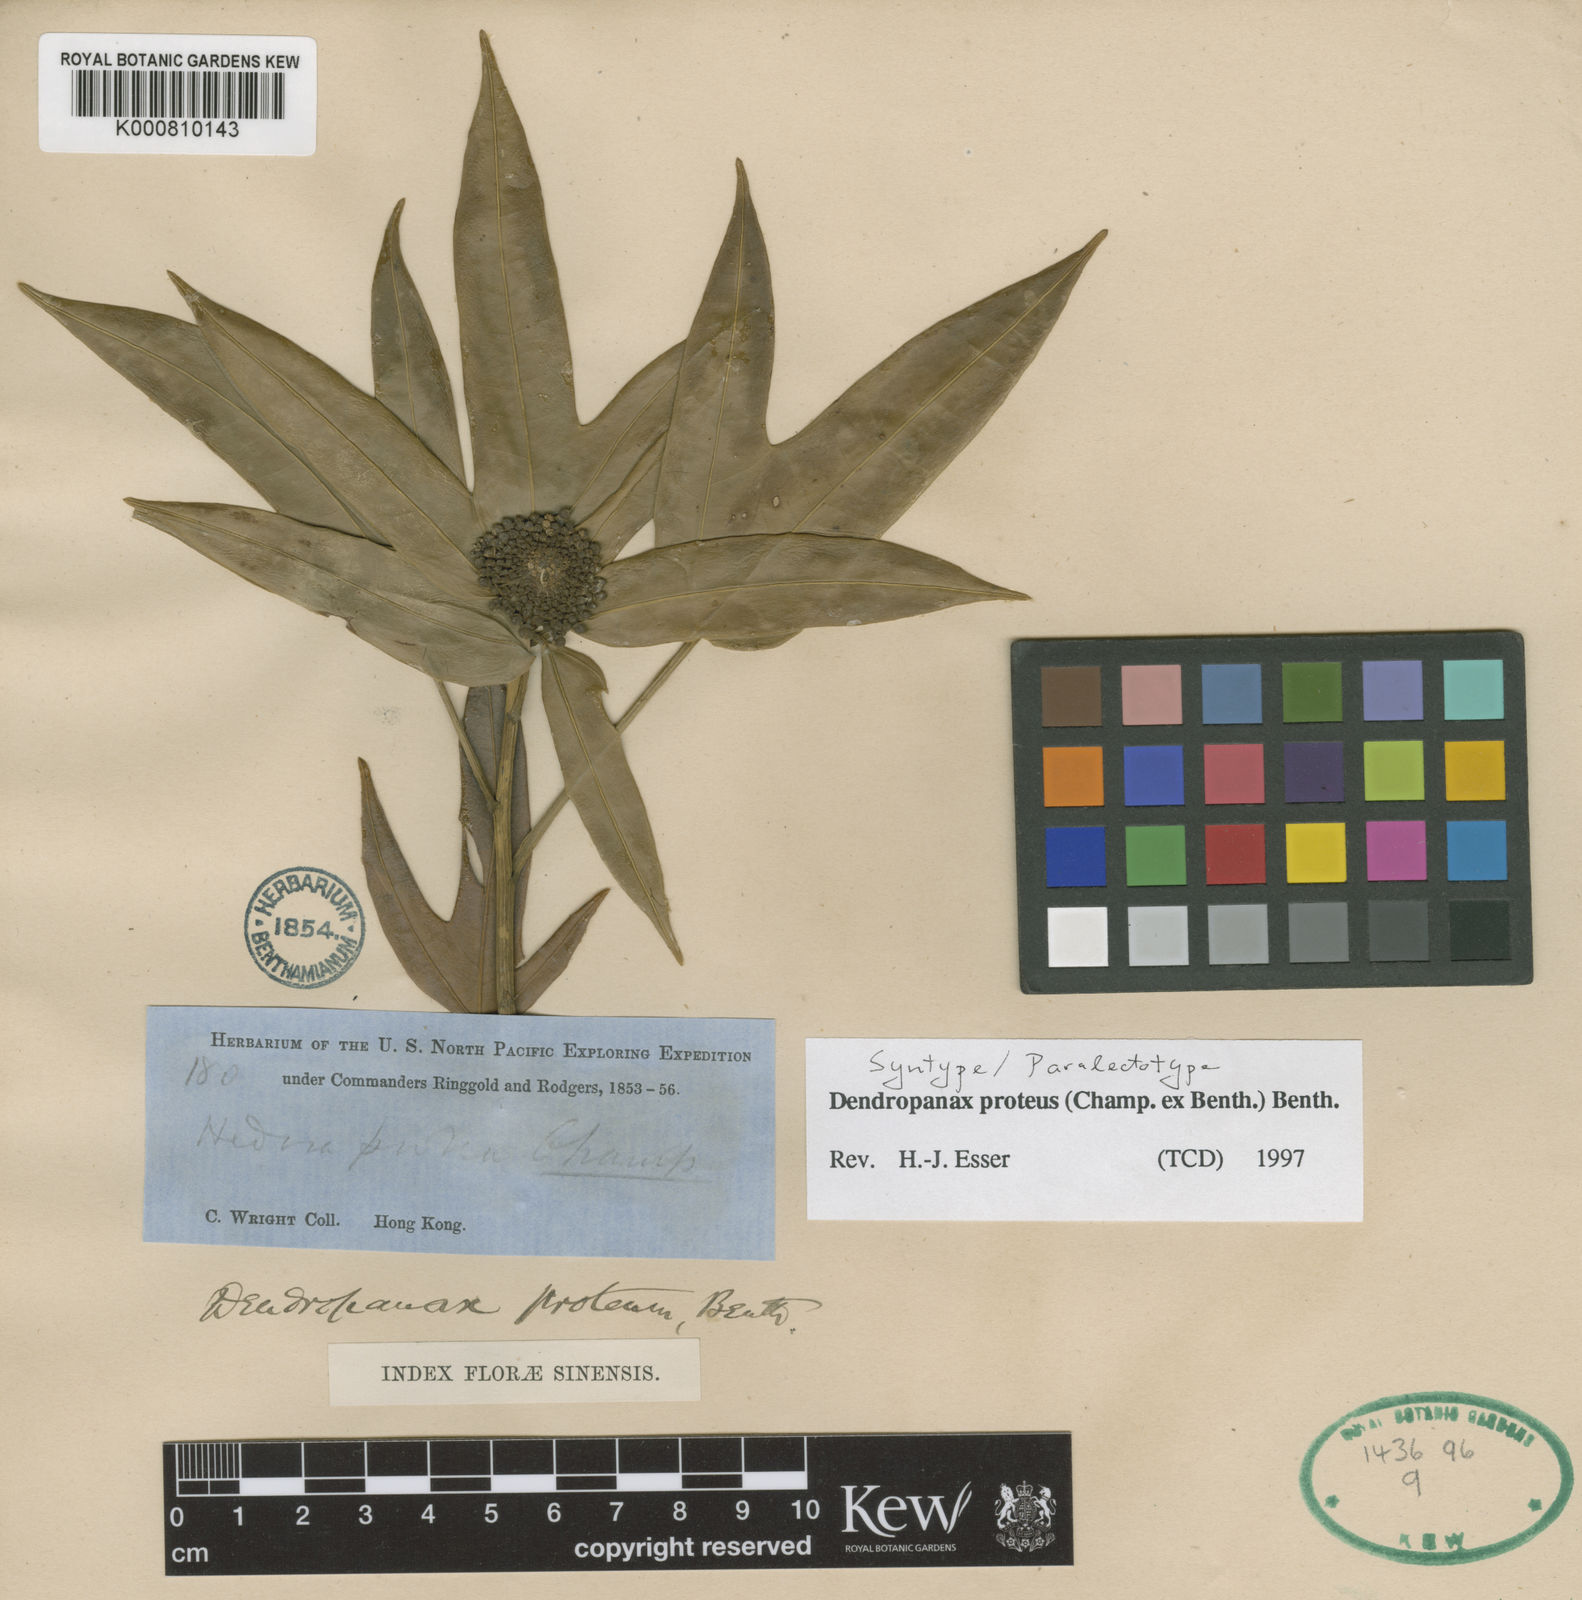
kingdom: Plantae
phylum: Tracheophyta
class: Magnoliopsida
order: Apiales
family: Araliaceae
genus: Dendropanax
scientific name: Dendropanax proteus
